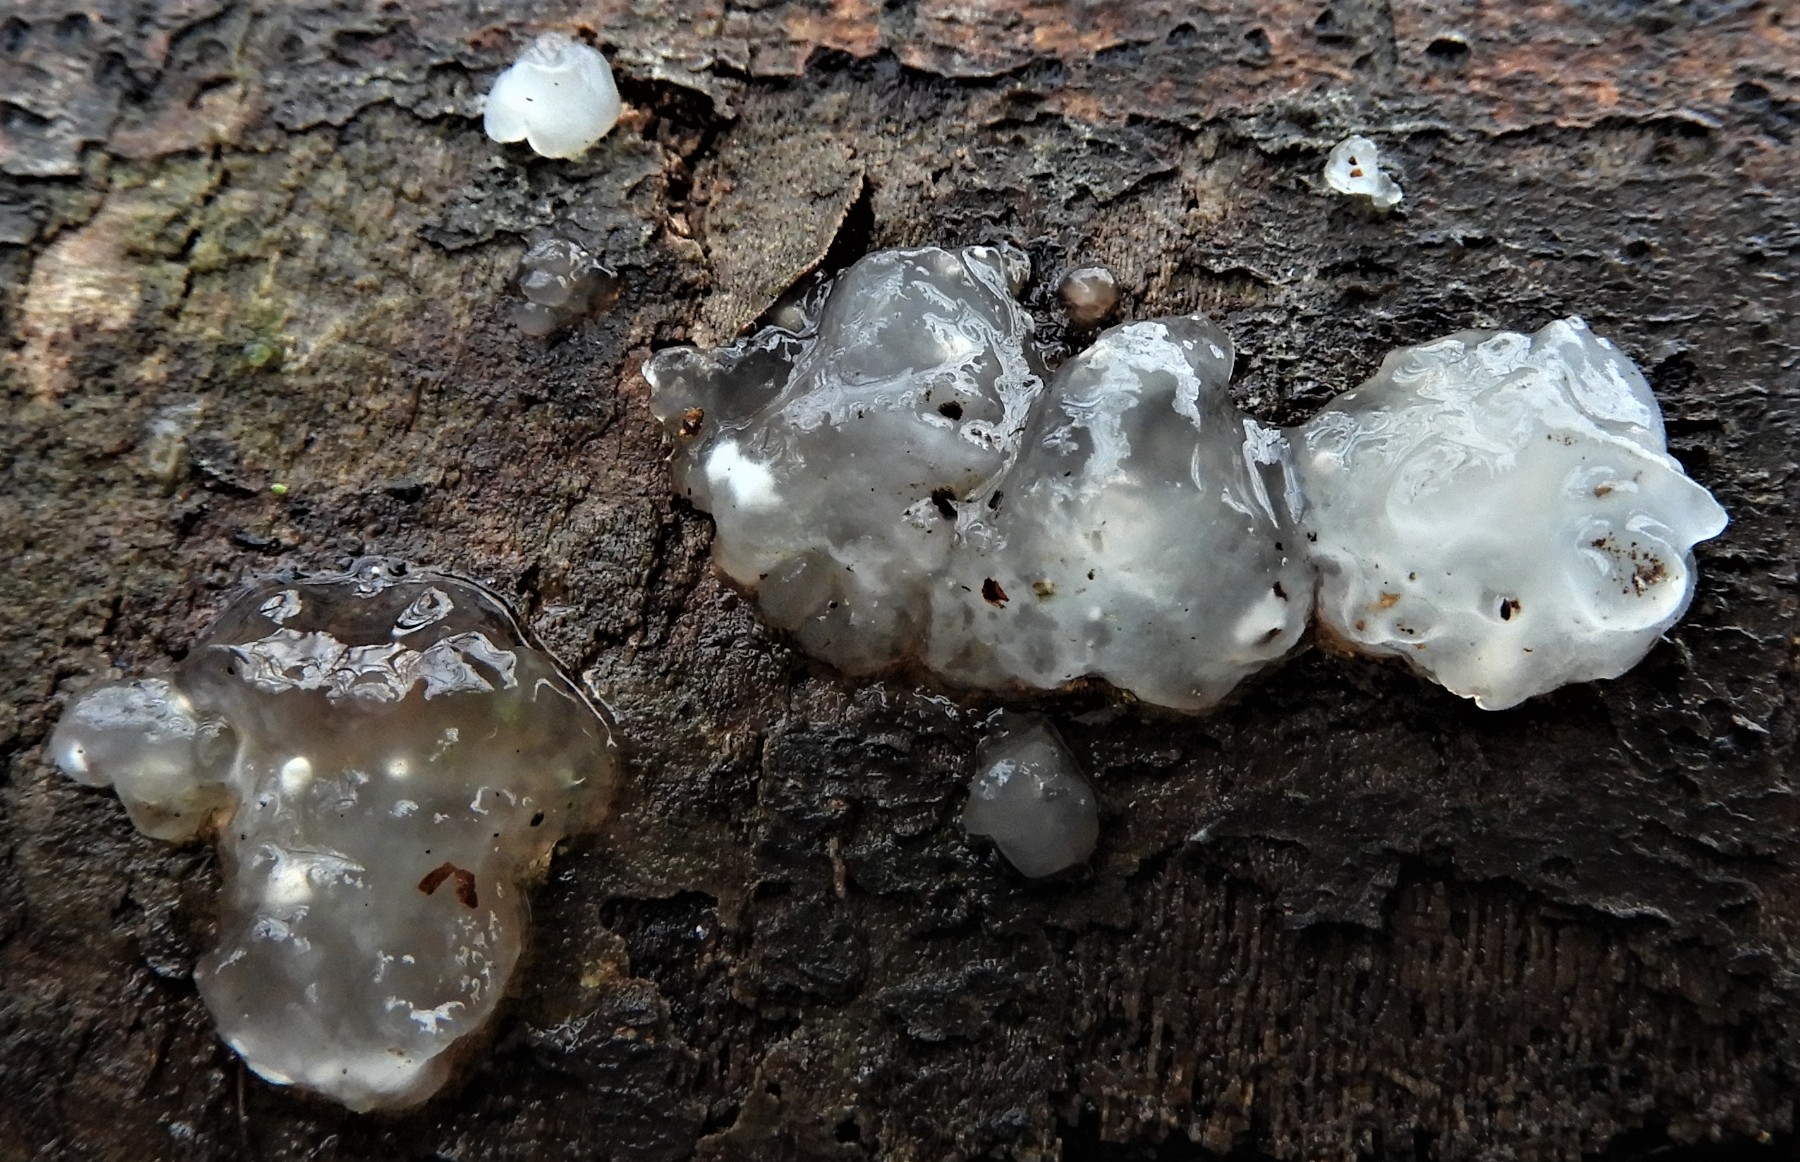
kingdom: Fungi
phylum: Basidiomycota
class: Agaricomycetes
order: Auriculariales
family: Hyaloriaceae
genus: Myxarium
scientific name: Myxarium nucleatum
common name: klar bævretop
